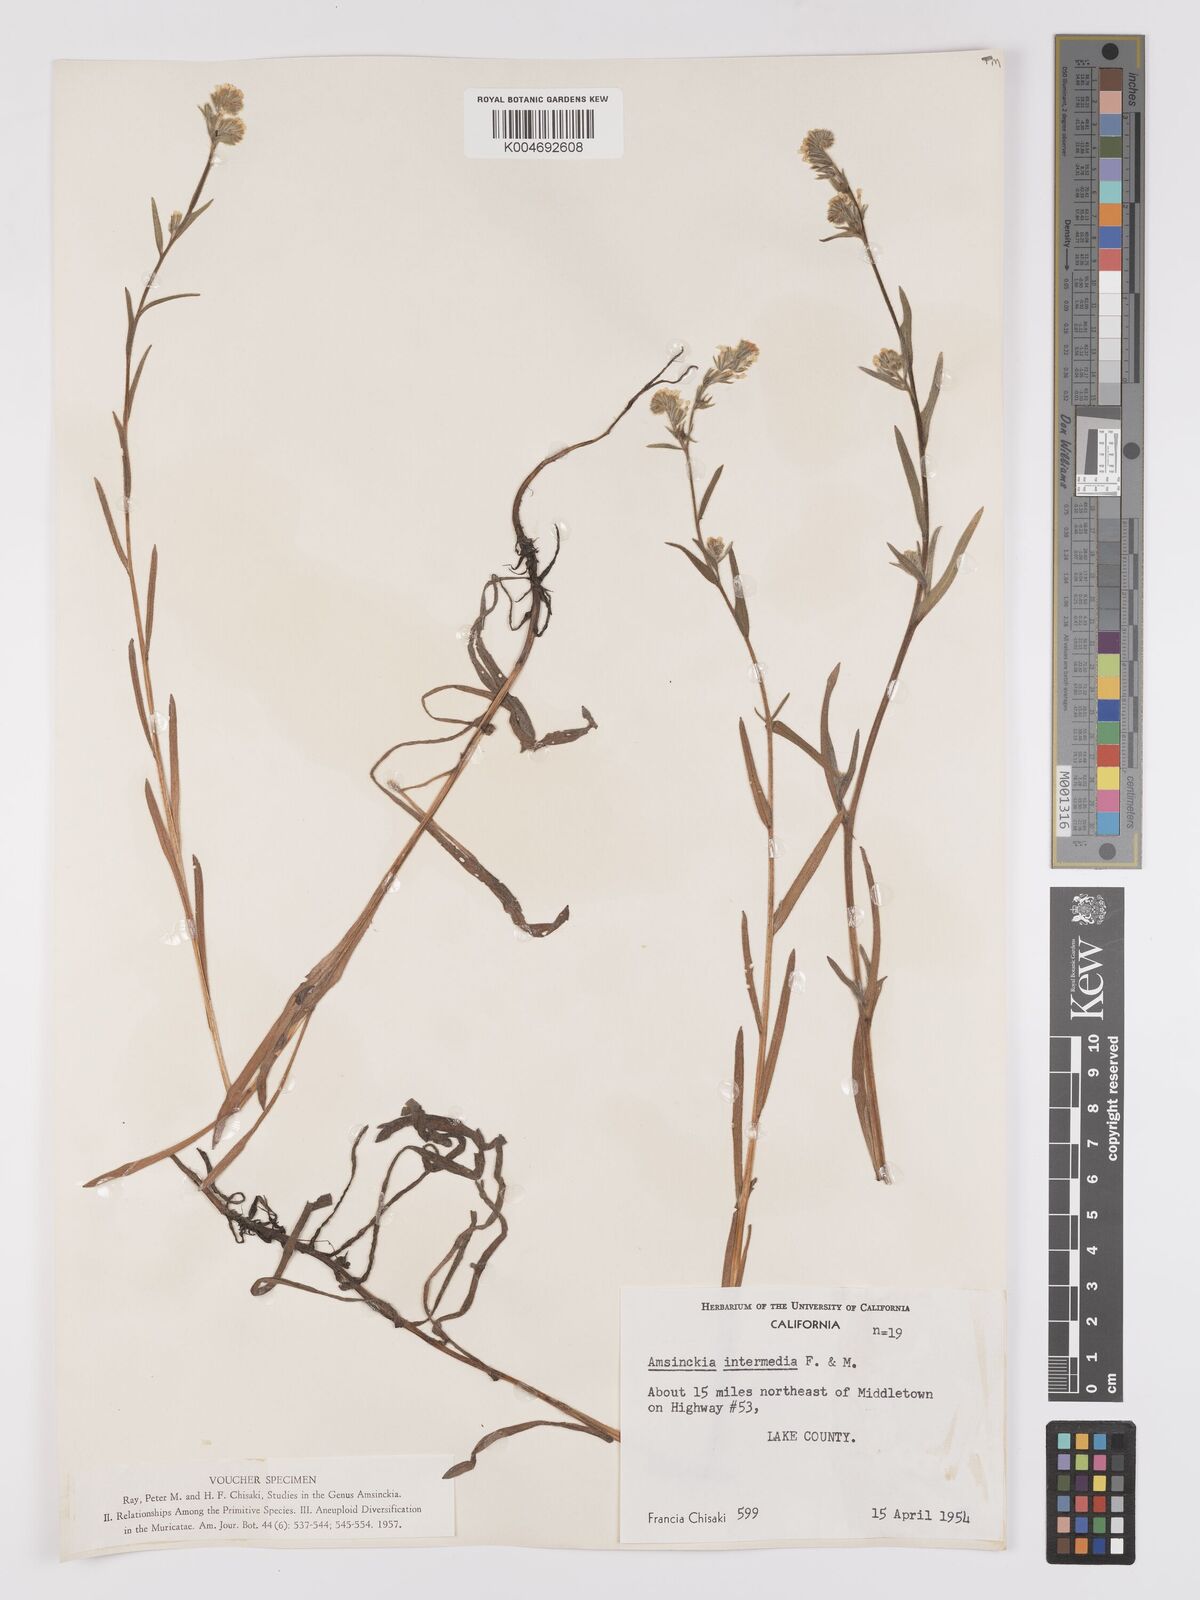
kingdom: Plantae
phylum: Tracheophyta
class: Magnoliopsida
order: Boraginales
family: Boraginaceae
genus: Amsinckia
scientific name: Amsinckia menziesii
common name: Menzies' fiddleneck
